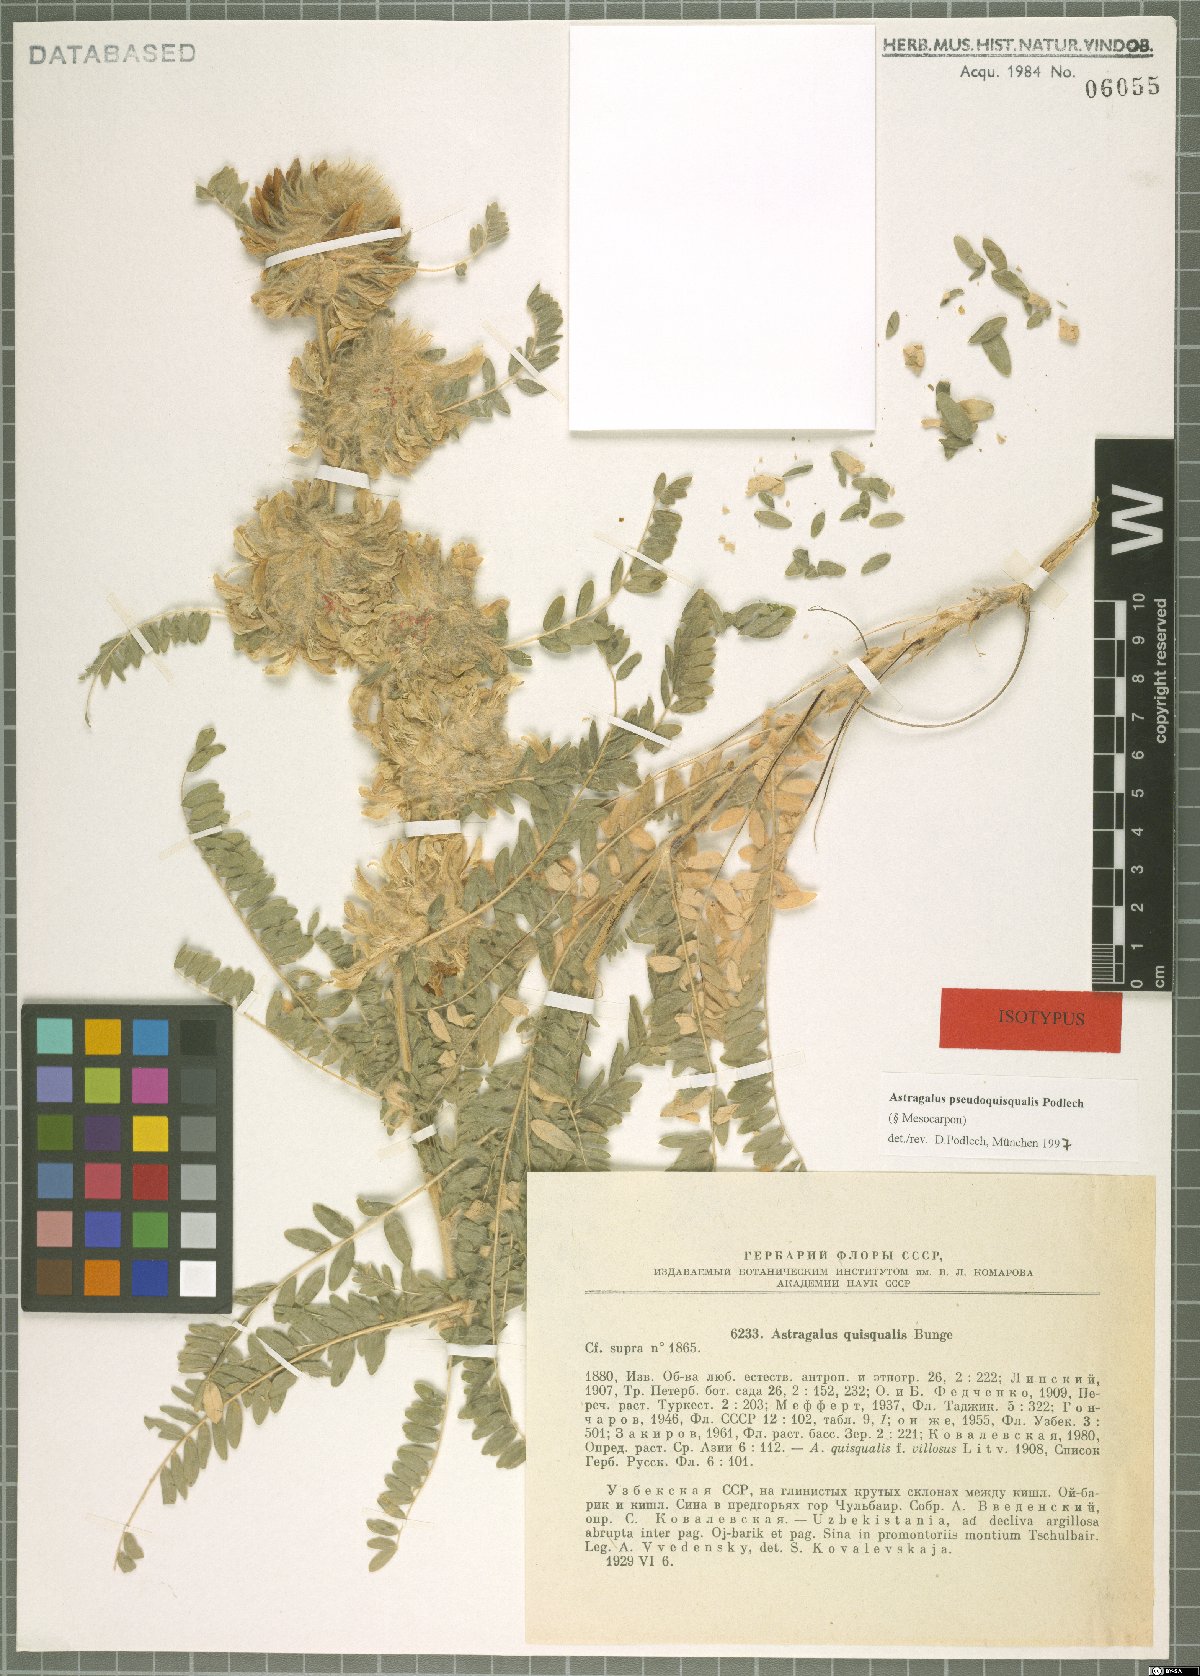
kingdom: Plantae
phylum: Tracheophyta
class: Magnoliopsida
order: Fabales
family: Fabaceae
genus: Astragalus
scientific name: Astragalus pseudoquisqualis
